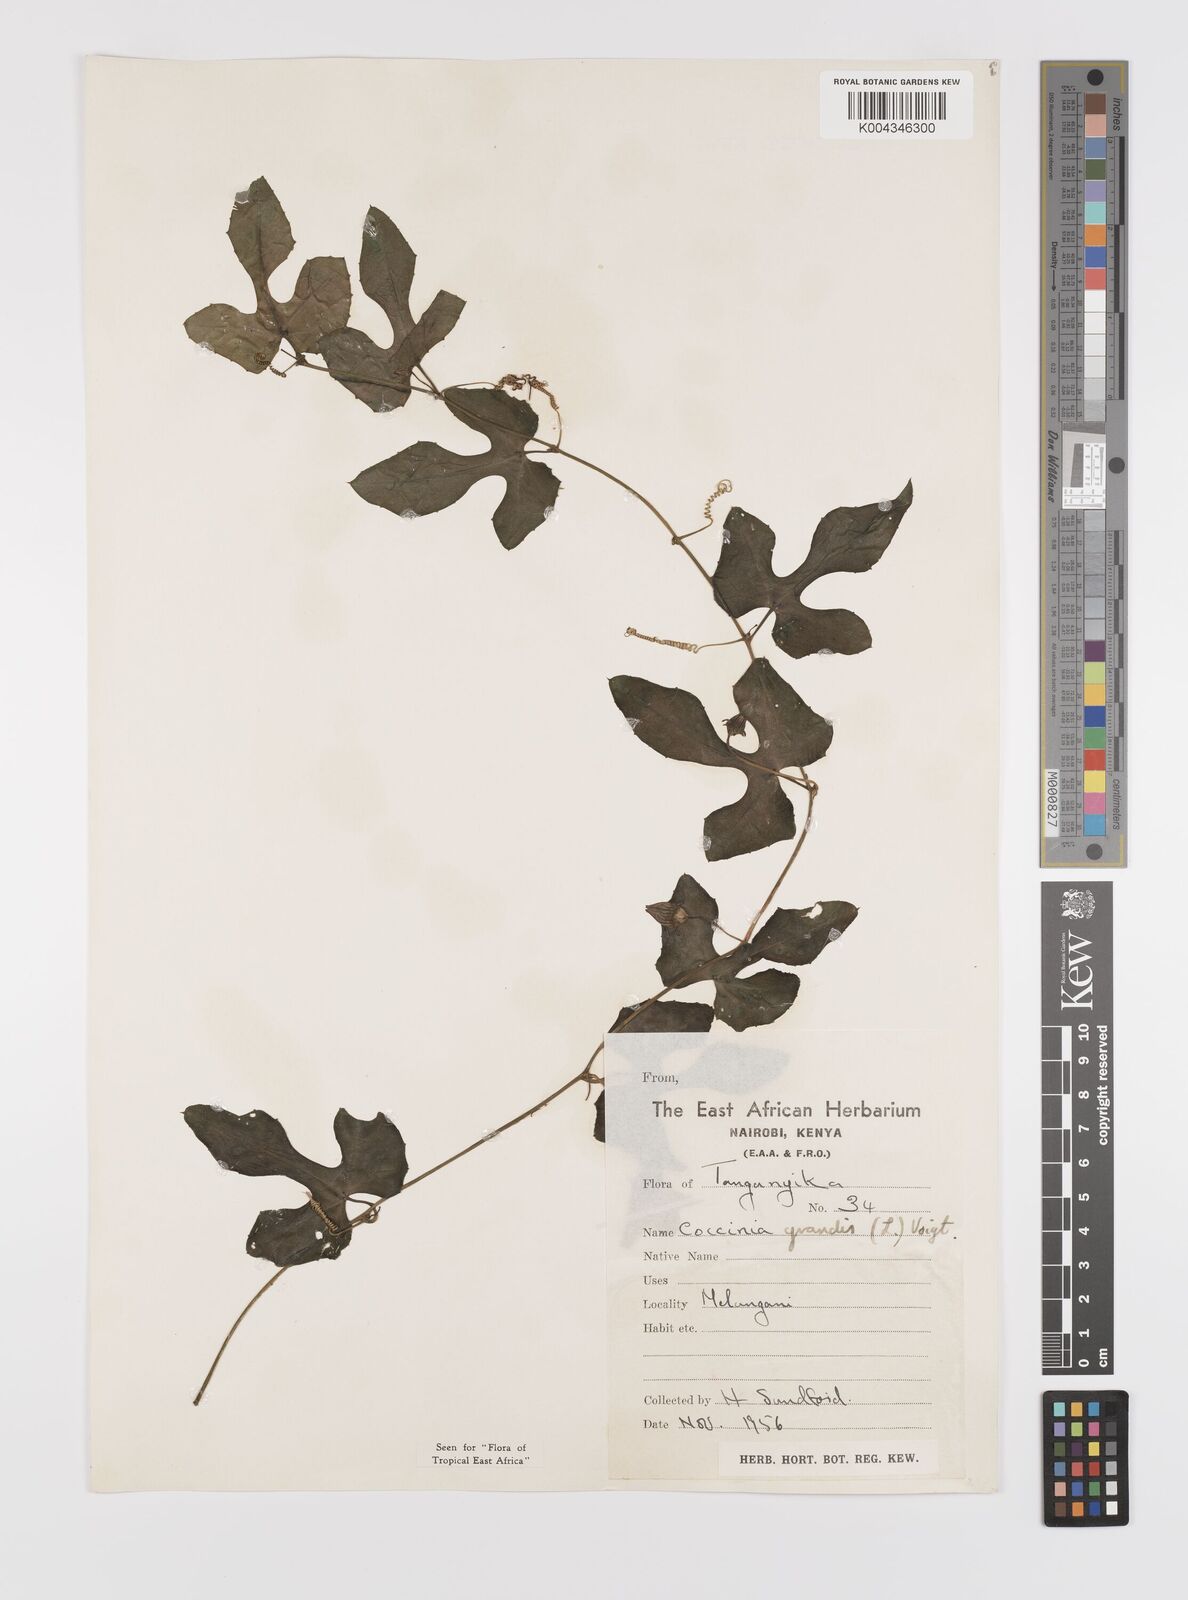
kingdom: Plantae
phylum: Tracheophyta
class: Magnoliopsida
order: Cucurbitales
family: Cucurbitaceae
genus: Coccinia
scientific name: Coccinia grandis
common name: Ivy gourd
